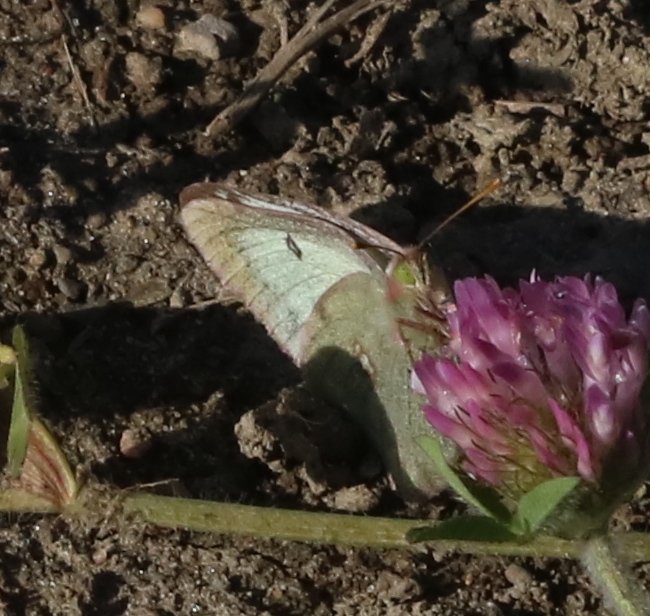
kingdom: Animalia
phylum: Arthropoda
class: Insecta
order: Lepidoptera
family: Pieridae
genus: Colias
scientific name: Colias philodice
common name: Clouded Sulphur
